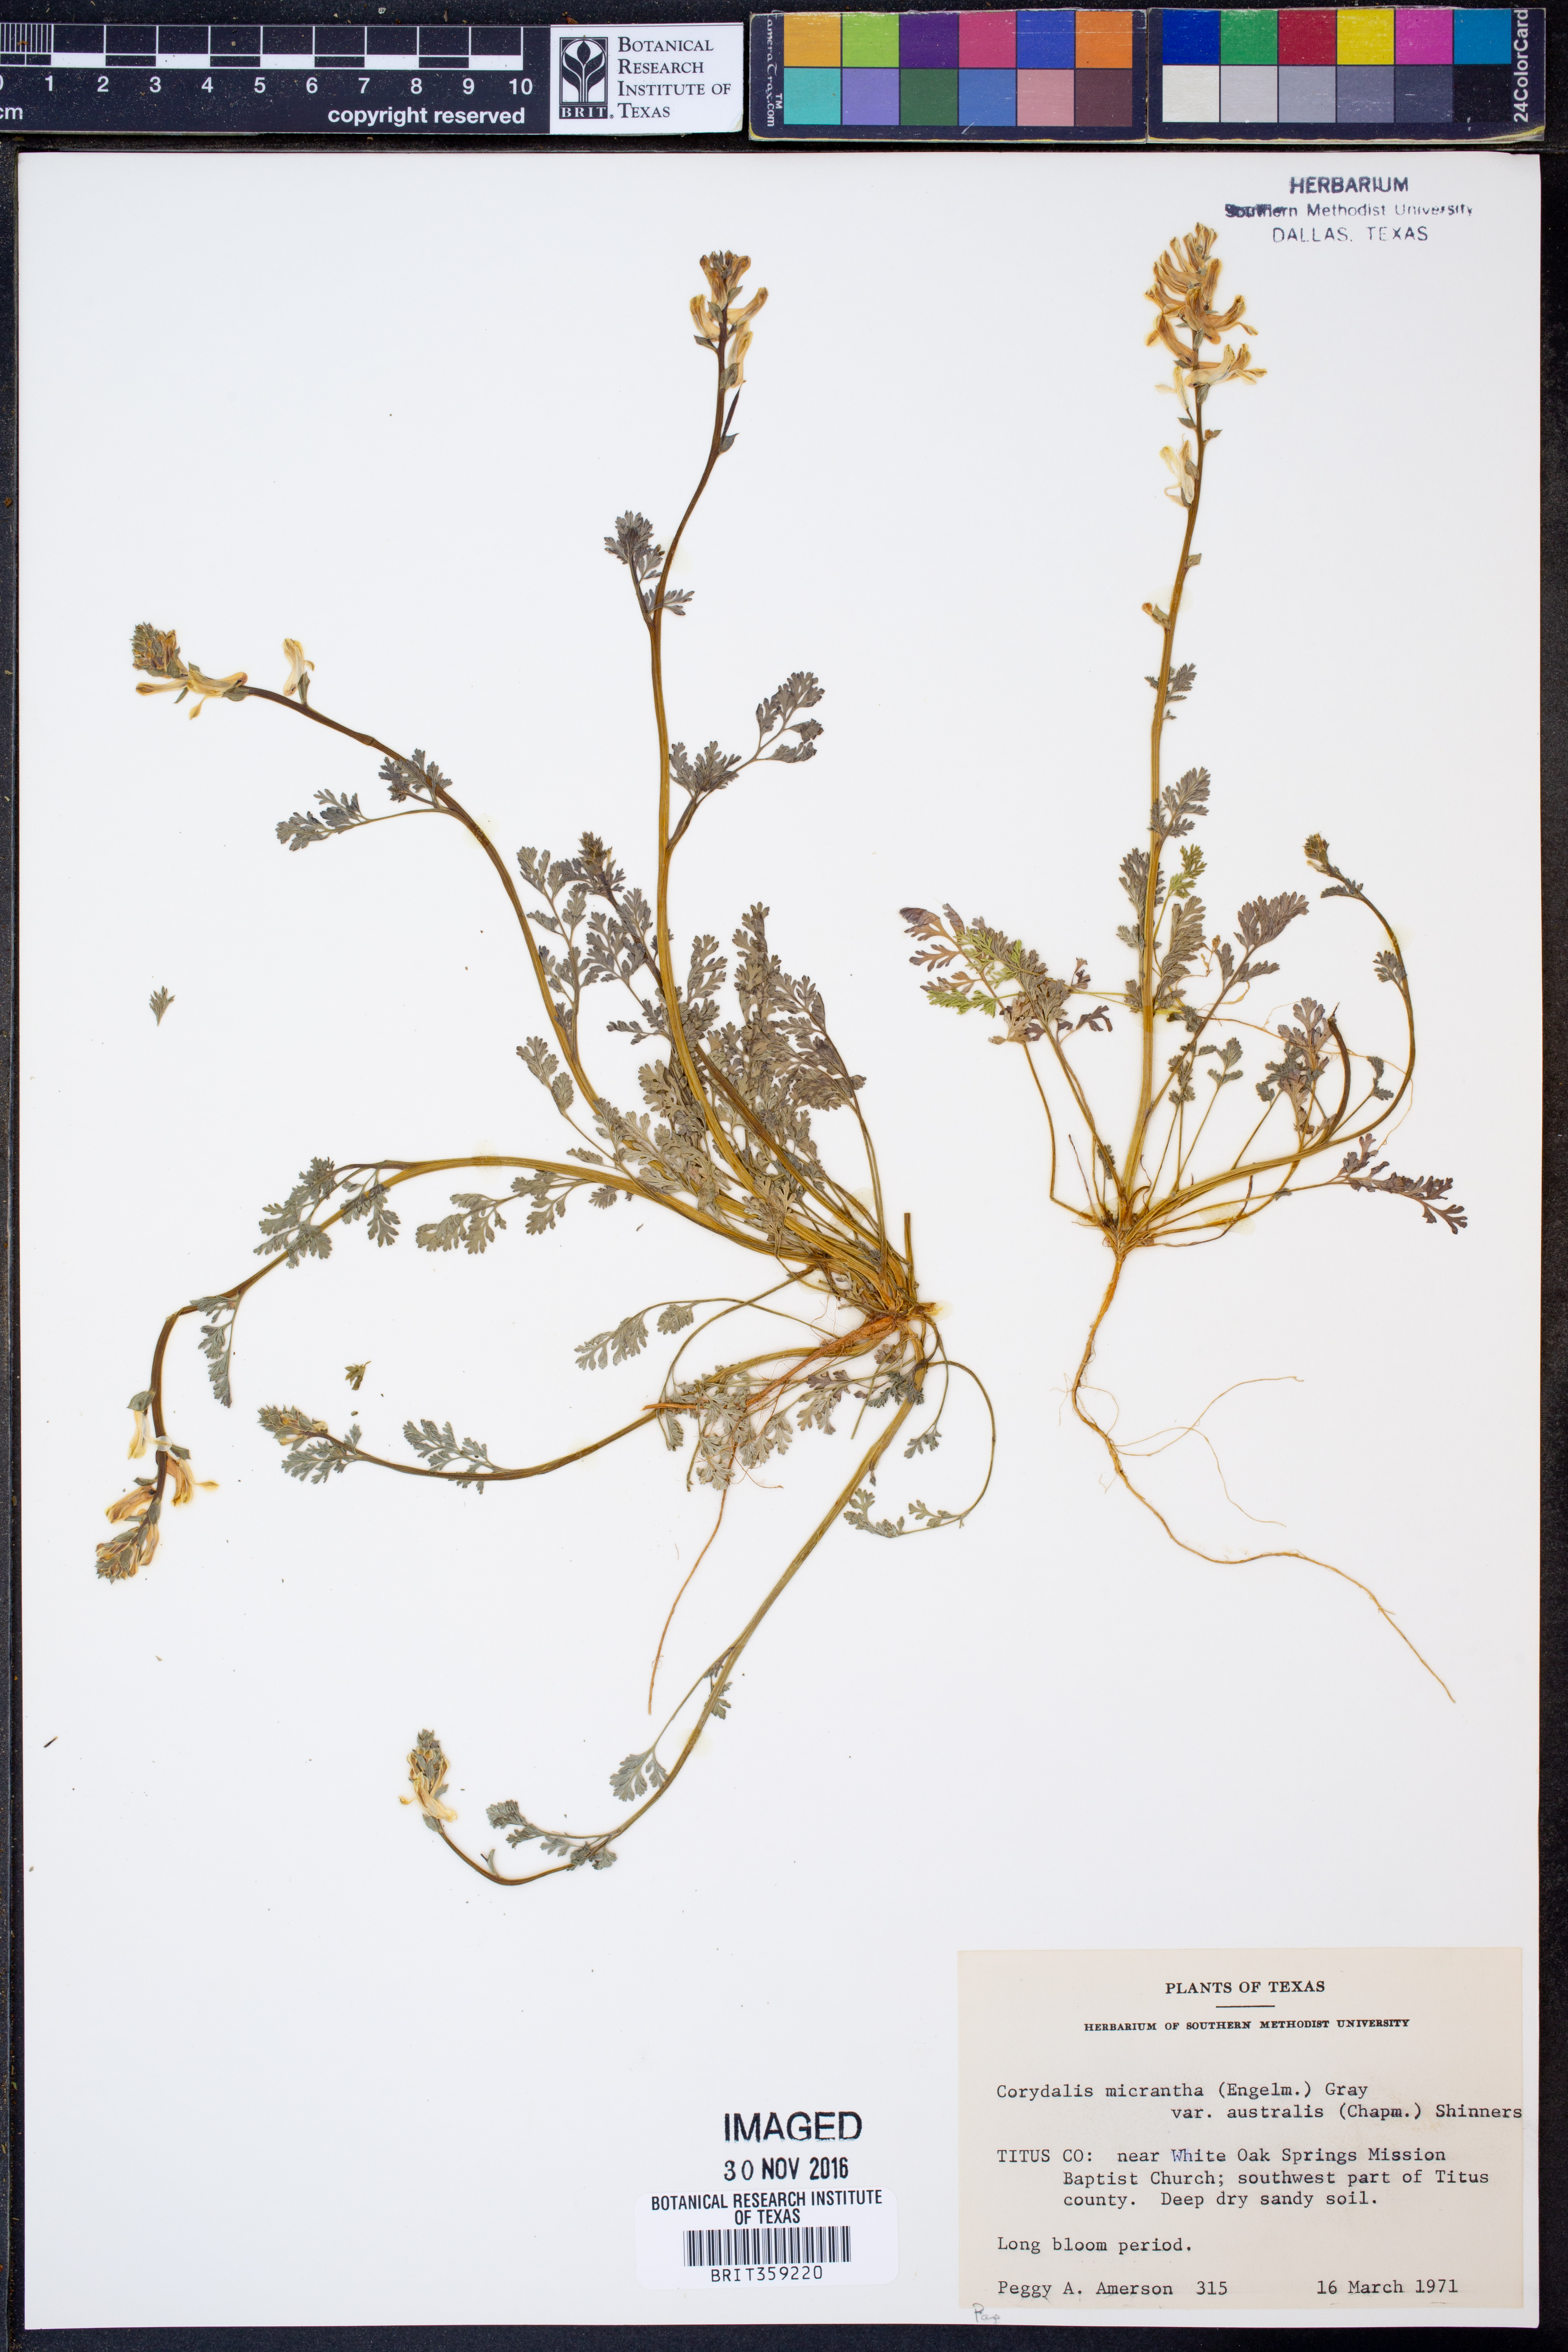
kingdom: Plantae
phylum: Tracheophyta
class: Magnoliopsida
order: Ranunculales
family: Papaveraceae
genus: Corydalis
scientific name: Corydalis micrantha
